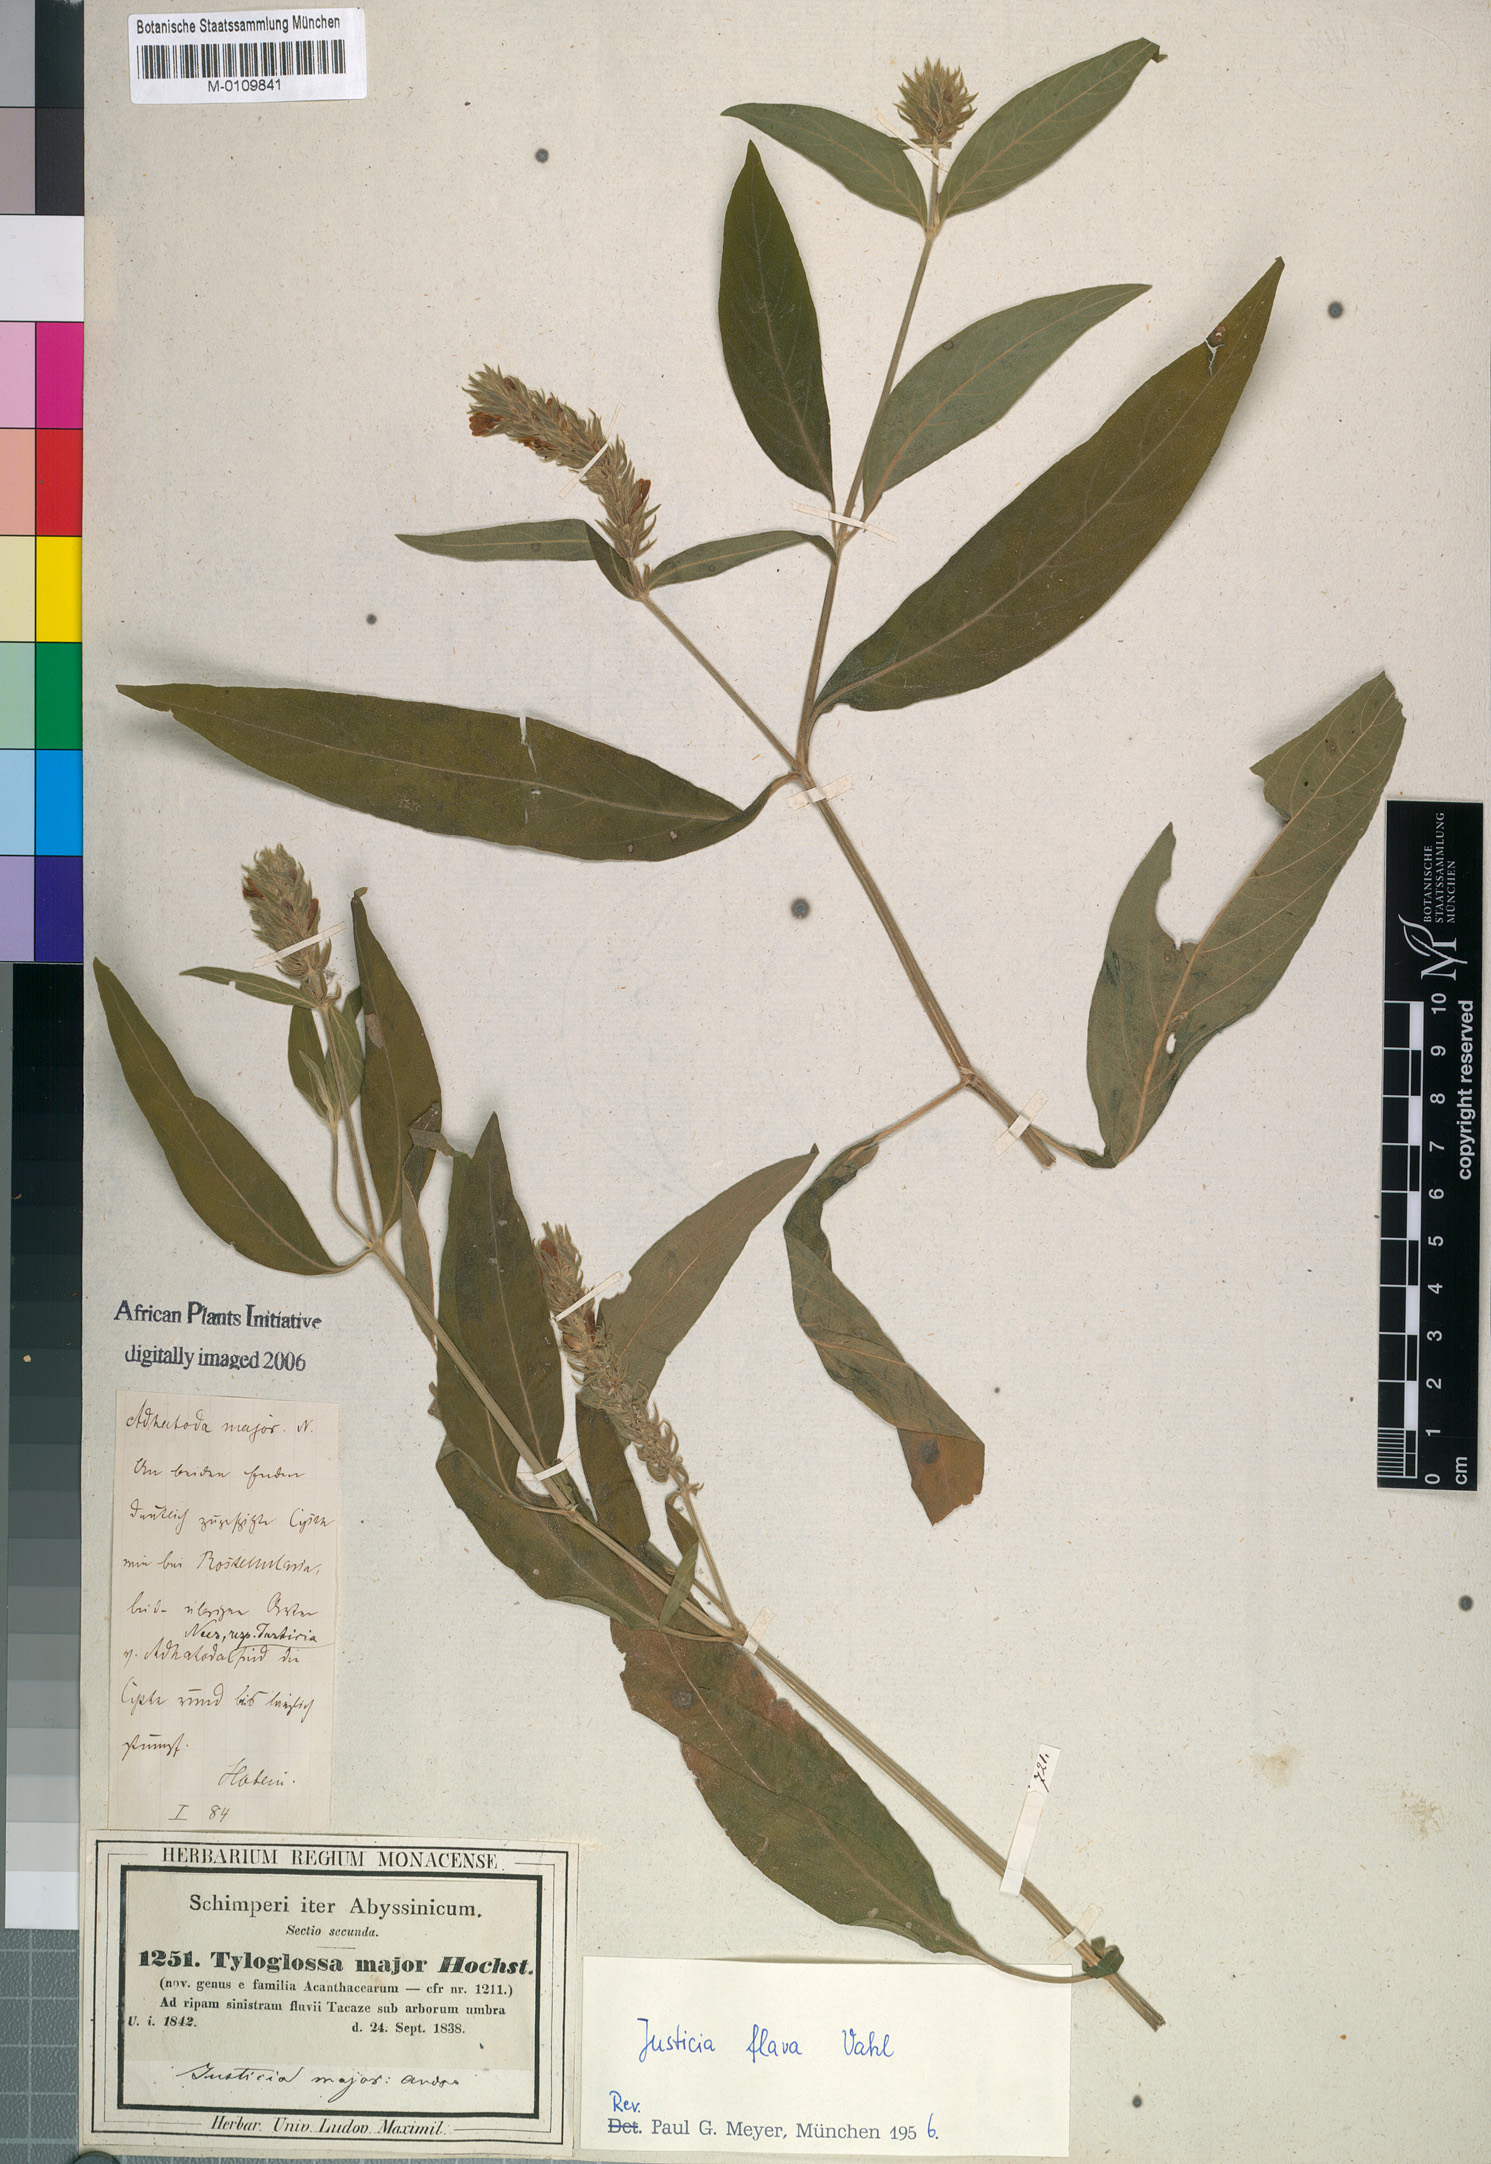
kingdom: Plantae
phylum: Tracheophyta
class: Magnoliopsida
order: Lamiales
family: Acanthaceae
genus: Justicia
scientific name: Justicia flava
